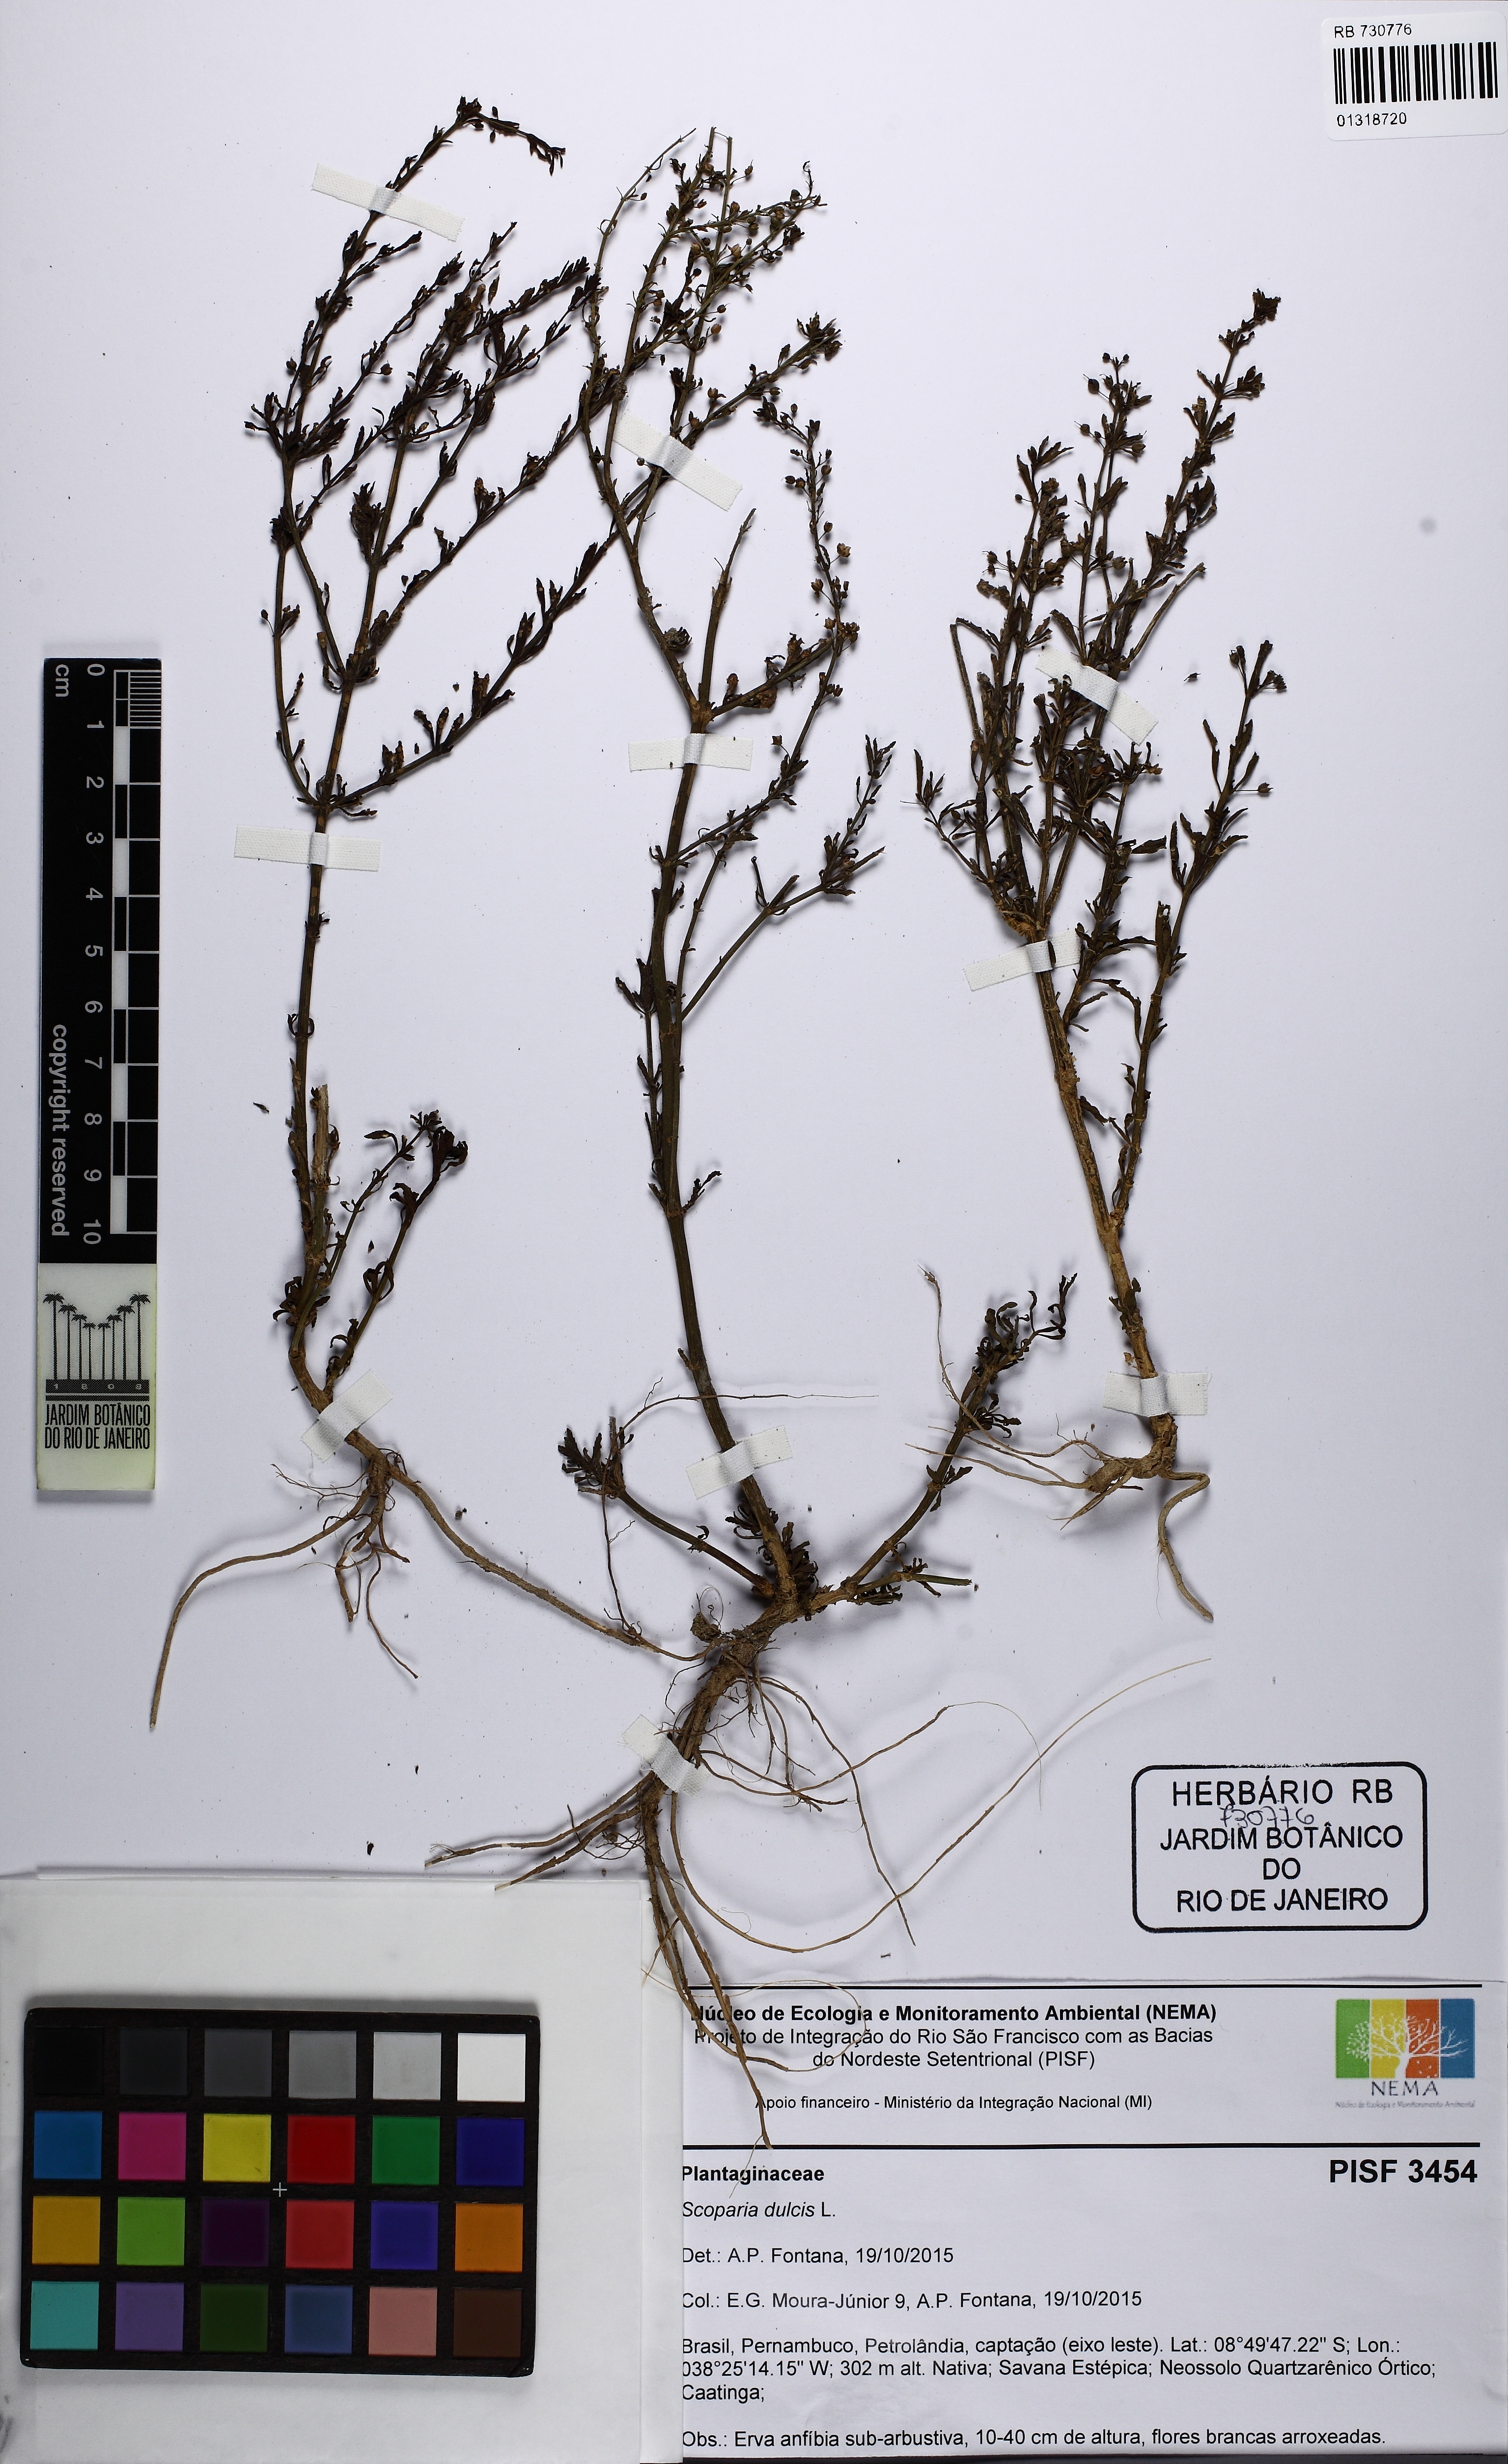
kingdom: Plantae
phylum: Tracheophyta
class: Magnoliopsida
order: Lamiales
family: Plantaginaceae
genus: Scoparia
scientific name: Scoparia dulcis
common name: Scoparia-weed
